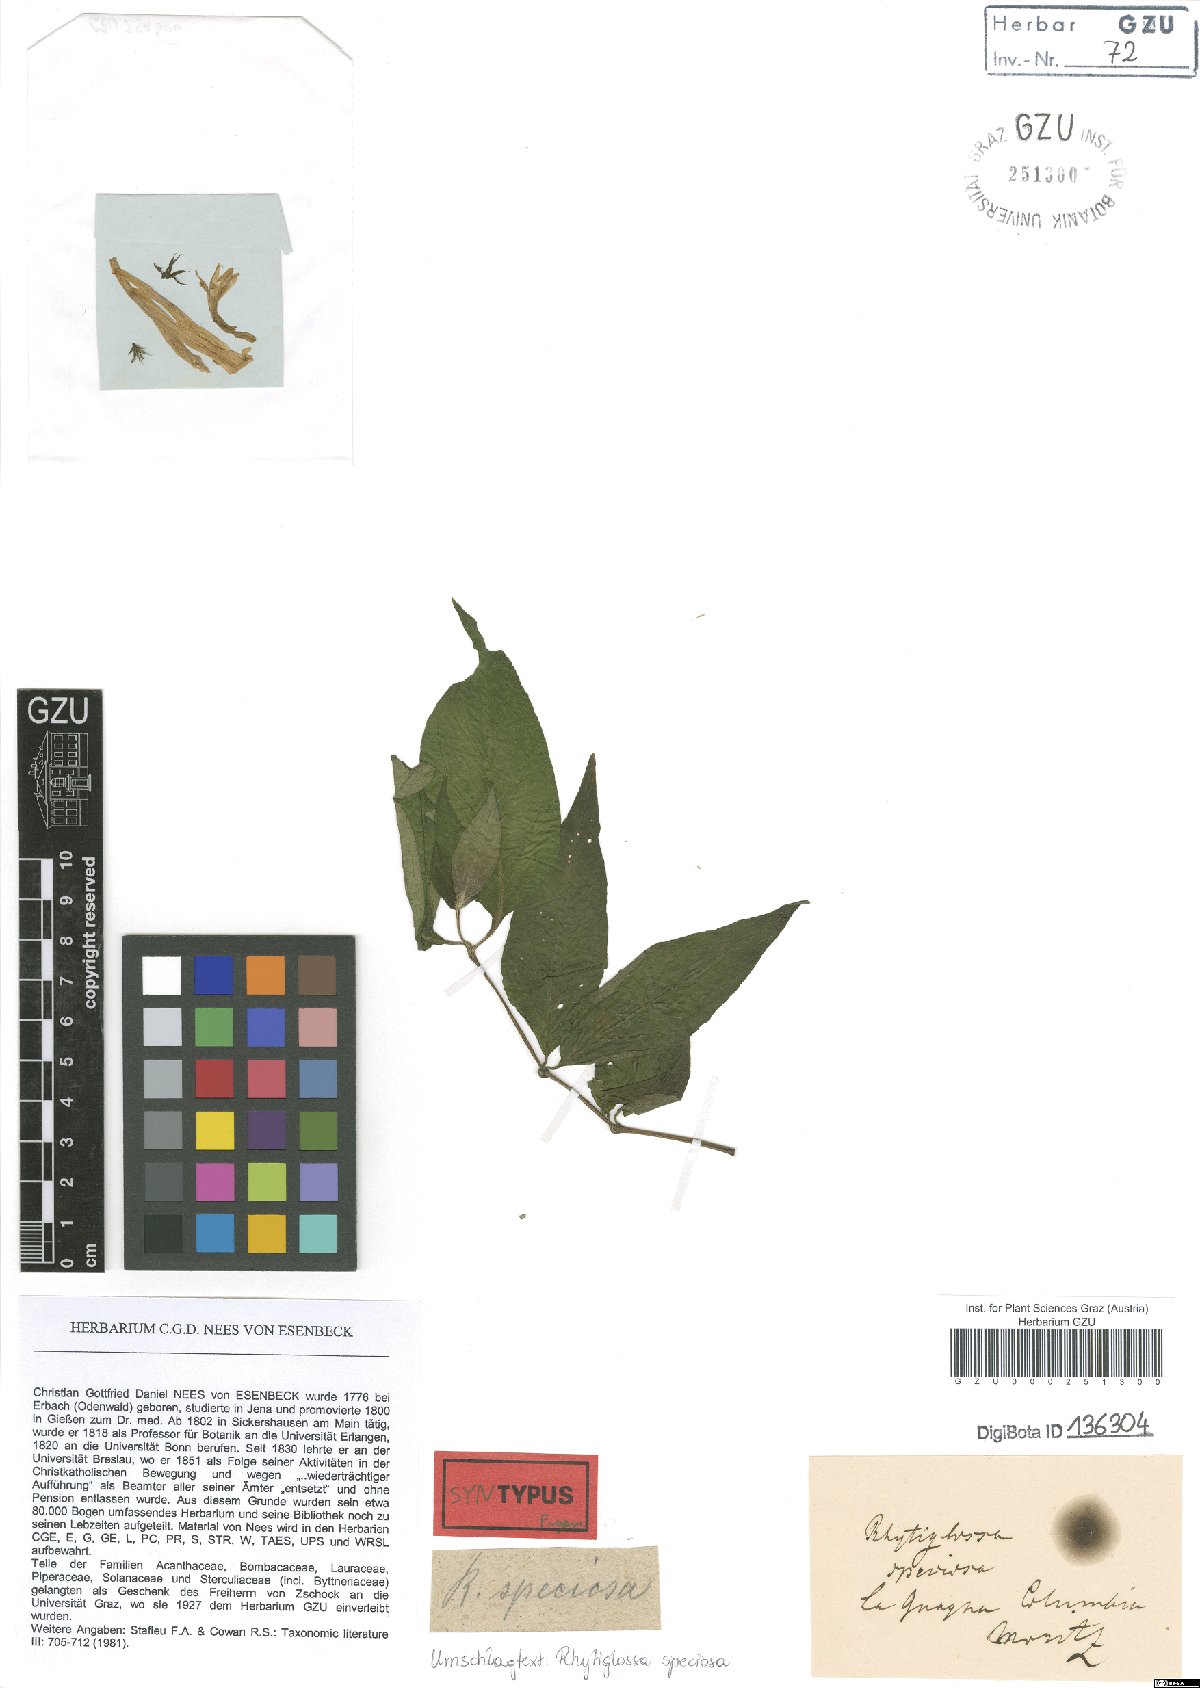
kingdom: Plantae
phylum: Tracheophyta
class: Magnoliopsida
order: Lamiales
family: Acanthaceae
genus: Dianthera
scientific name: Dianthera speciosa
